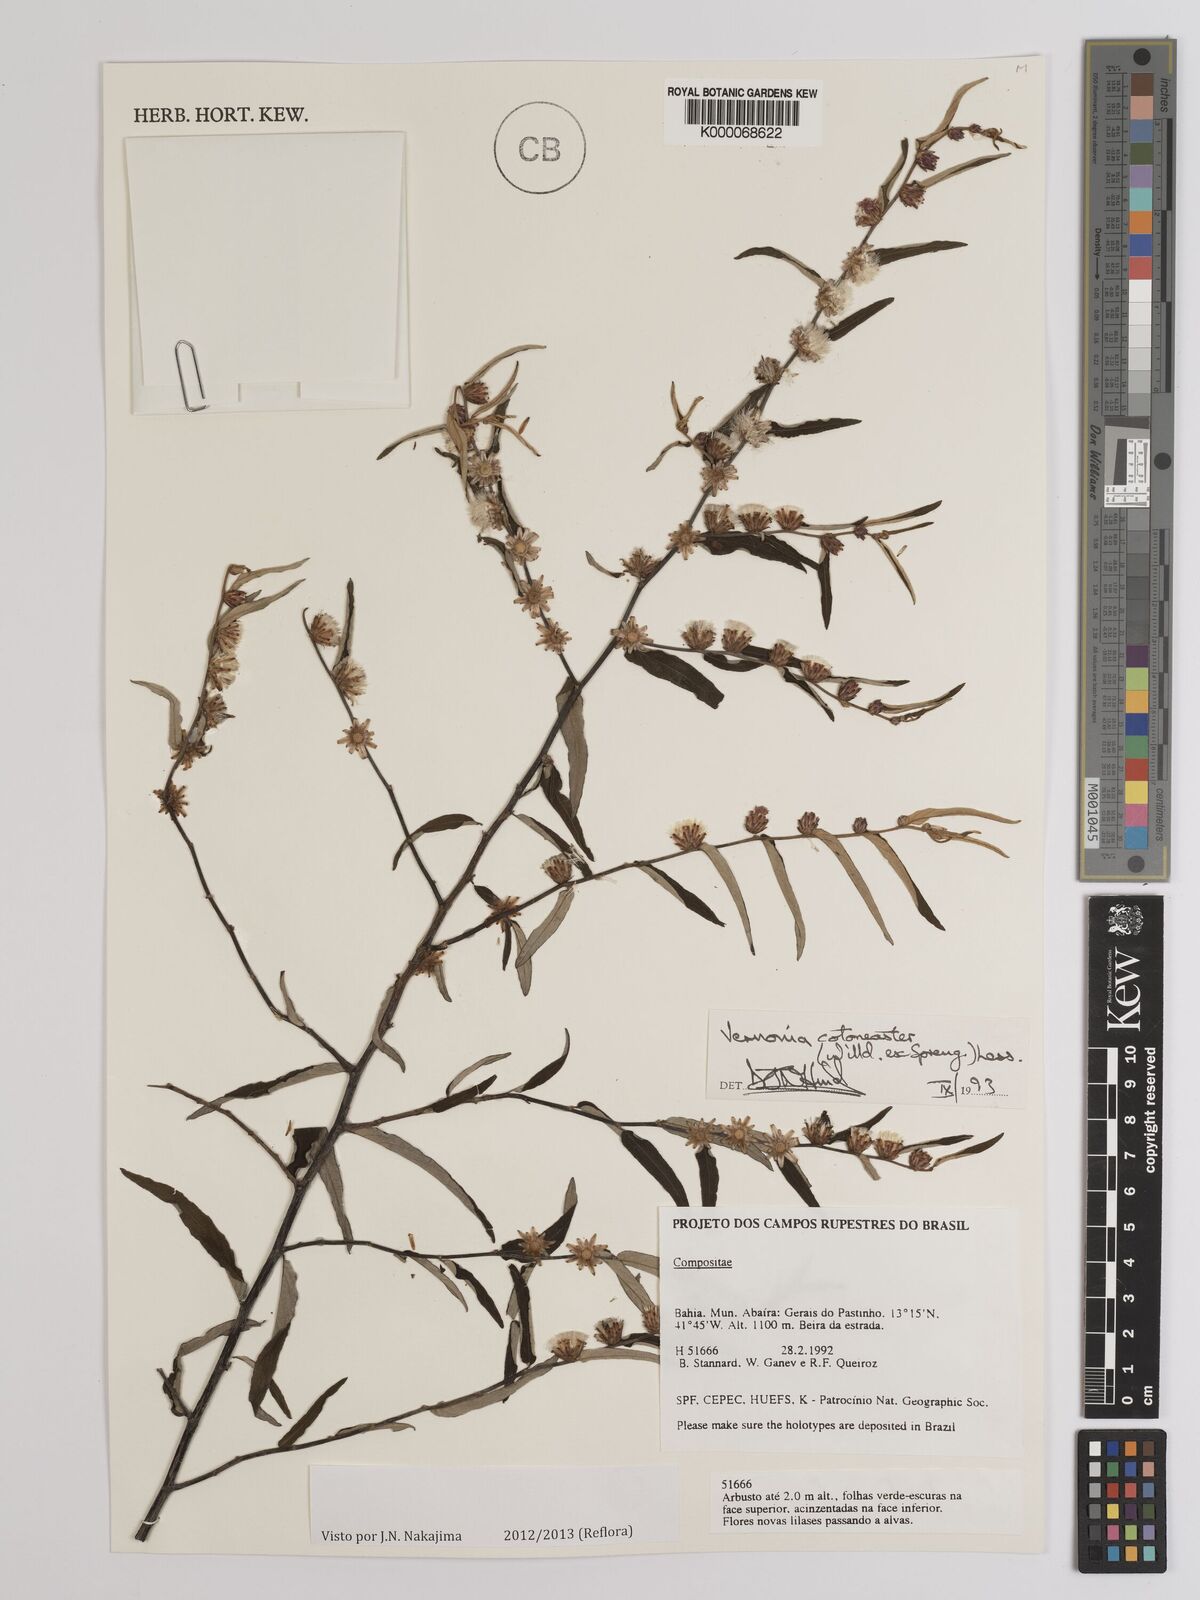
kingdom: Plantae
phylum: Tracheophyta
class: Magnoliopsida
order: Asterales
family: Asteraceae
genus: Lepidaploa
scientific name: Lepidaploa cotoneaster
